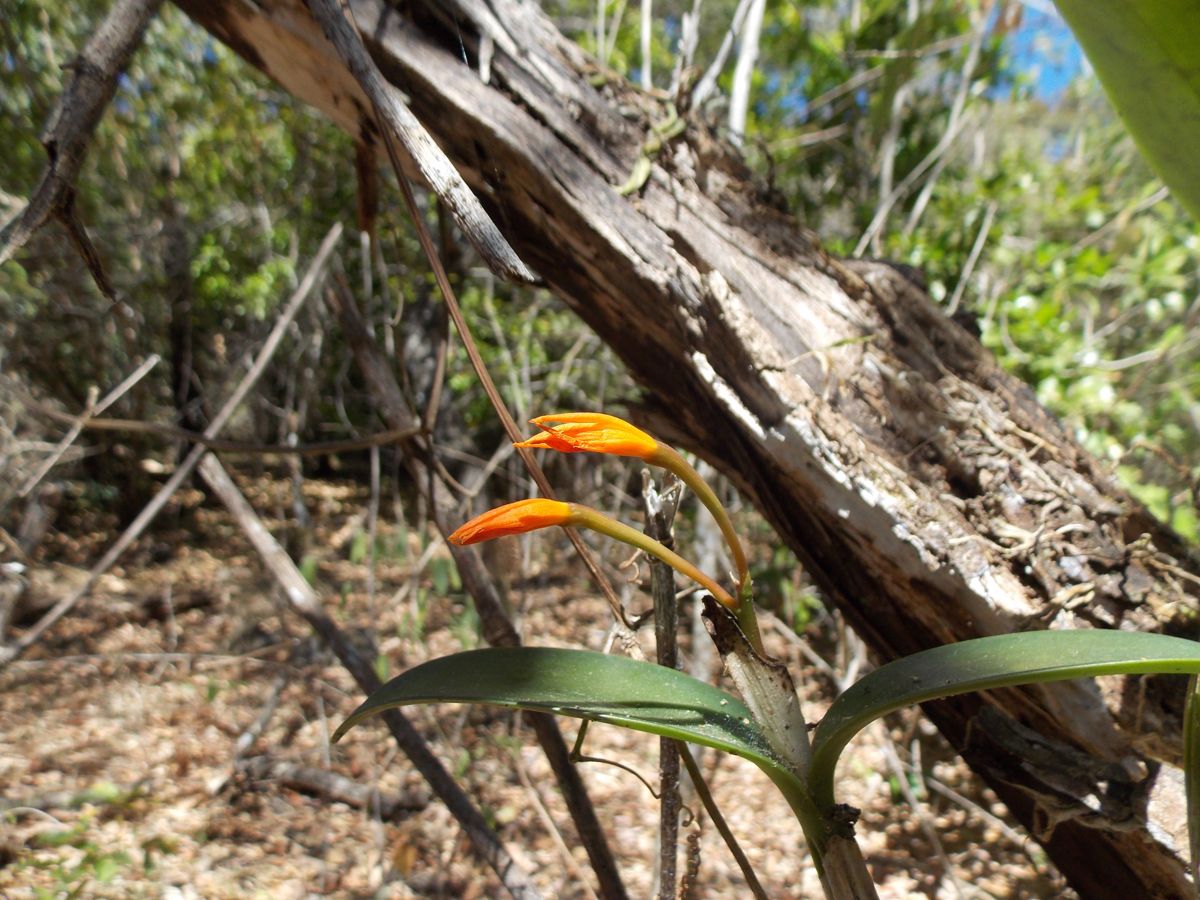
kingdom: Plantae
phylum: Tracheophyta
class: Liliopsida
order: Asparagales
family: Orchidaceae
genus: Guarianthe
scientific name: Guarianthe aurantiaca
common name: Orange cattleya
